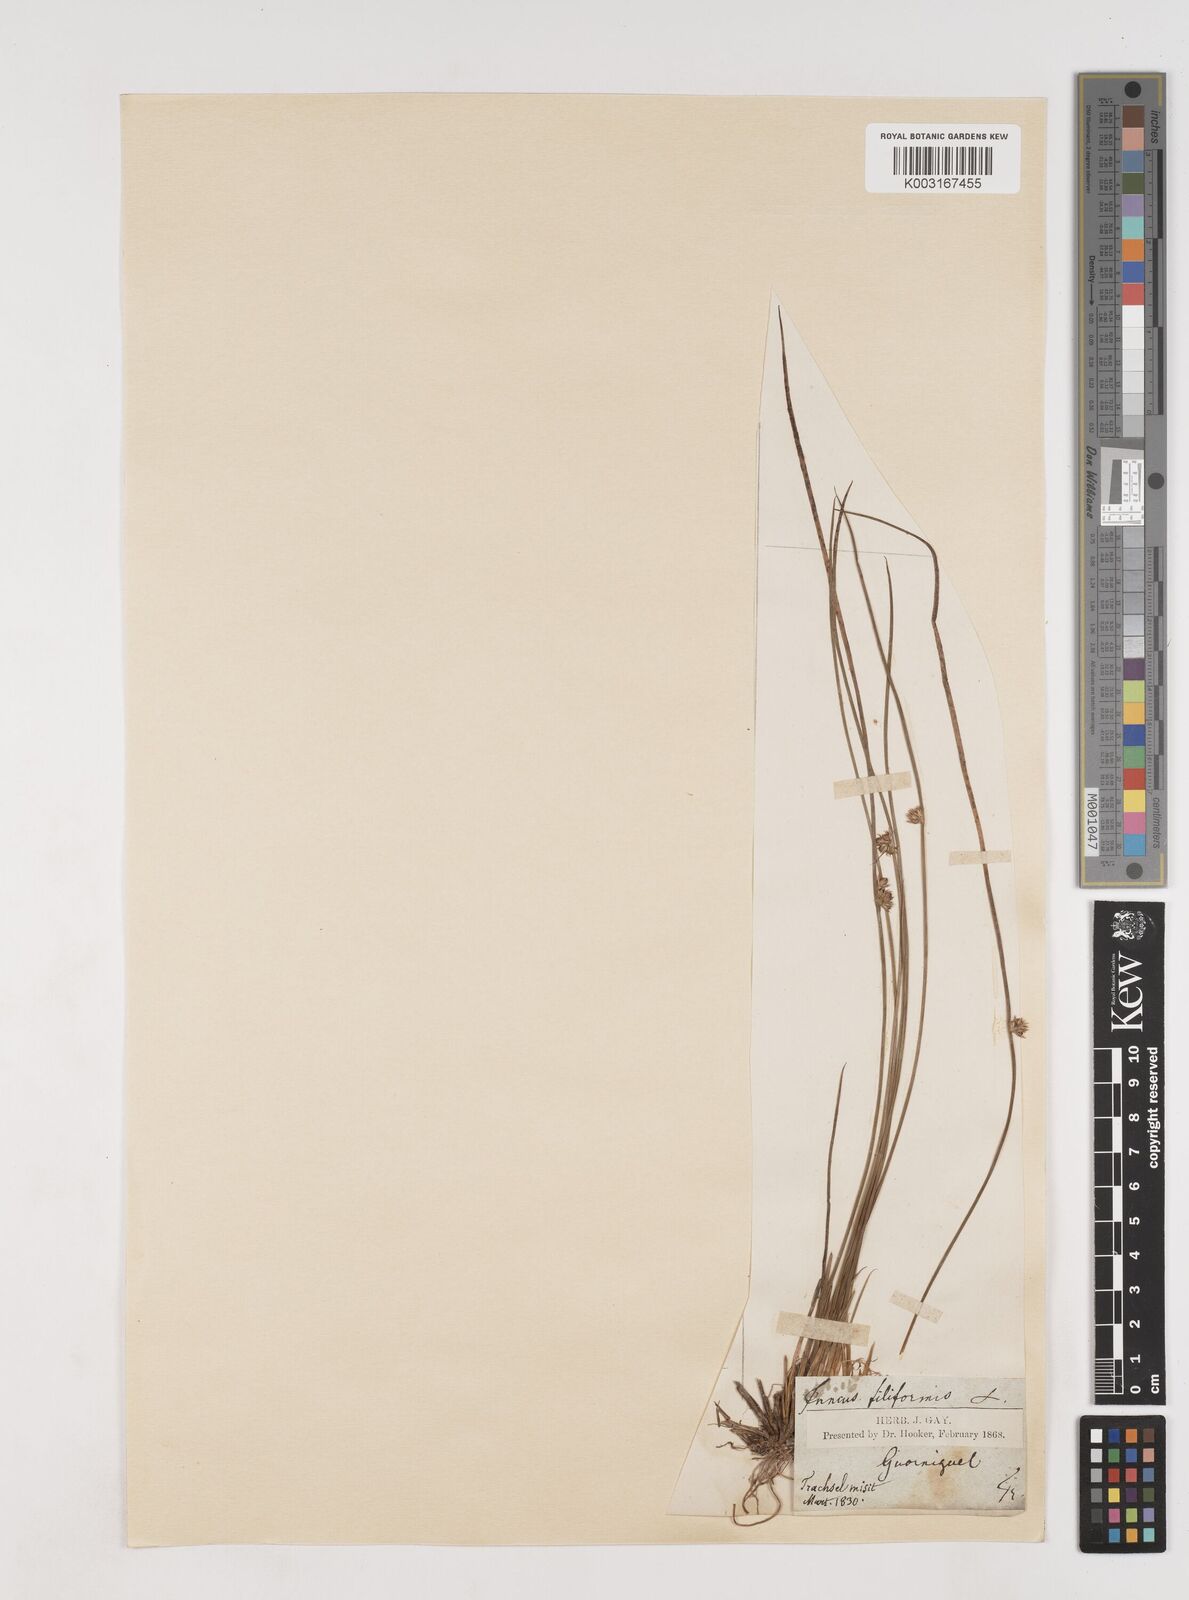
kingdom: Plantae
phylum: Tracheophyta
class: Liliopsida
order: Poales
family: Juncaceae
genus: Juncus
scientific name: Juncus filiformis
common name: Thread rush
